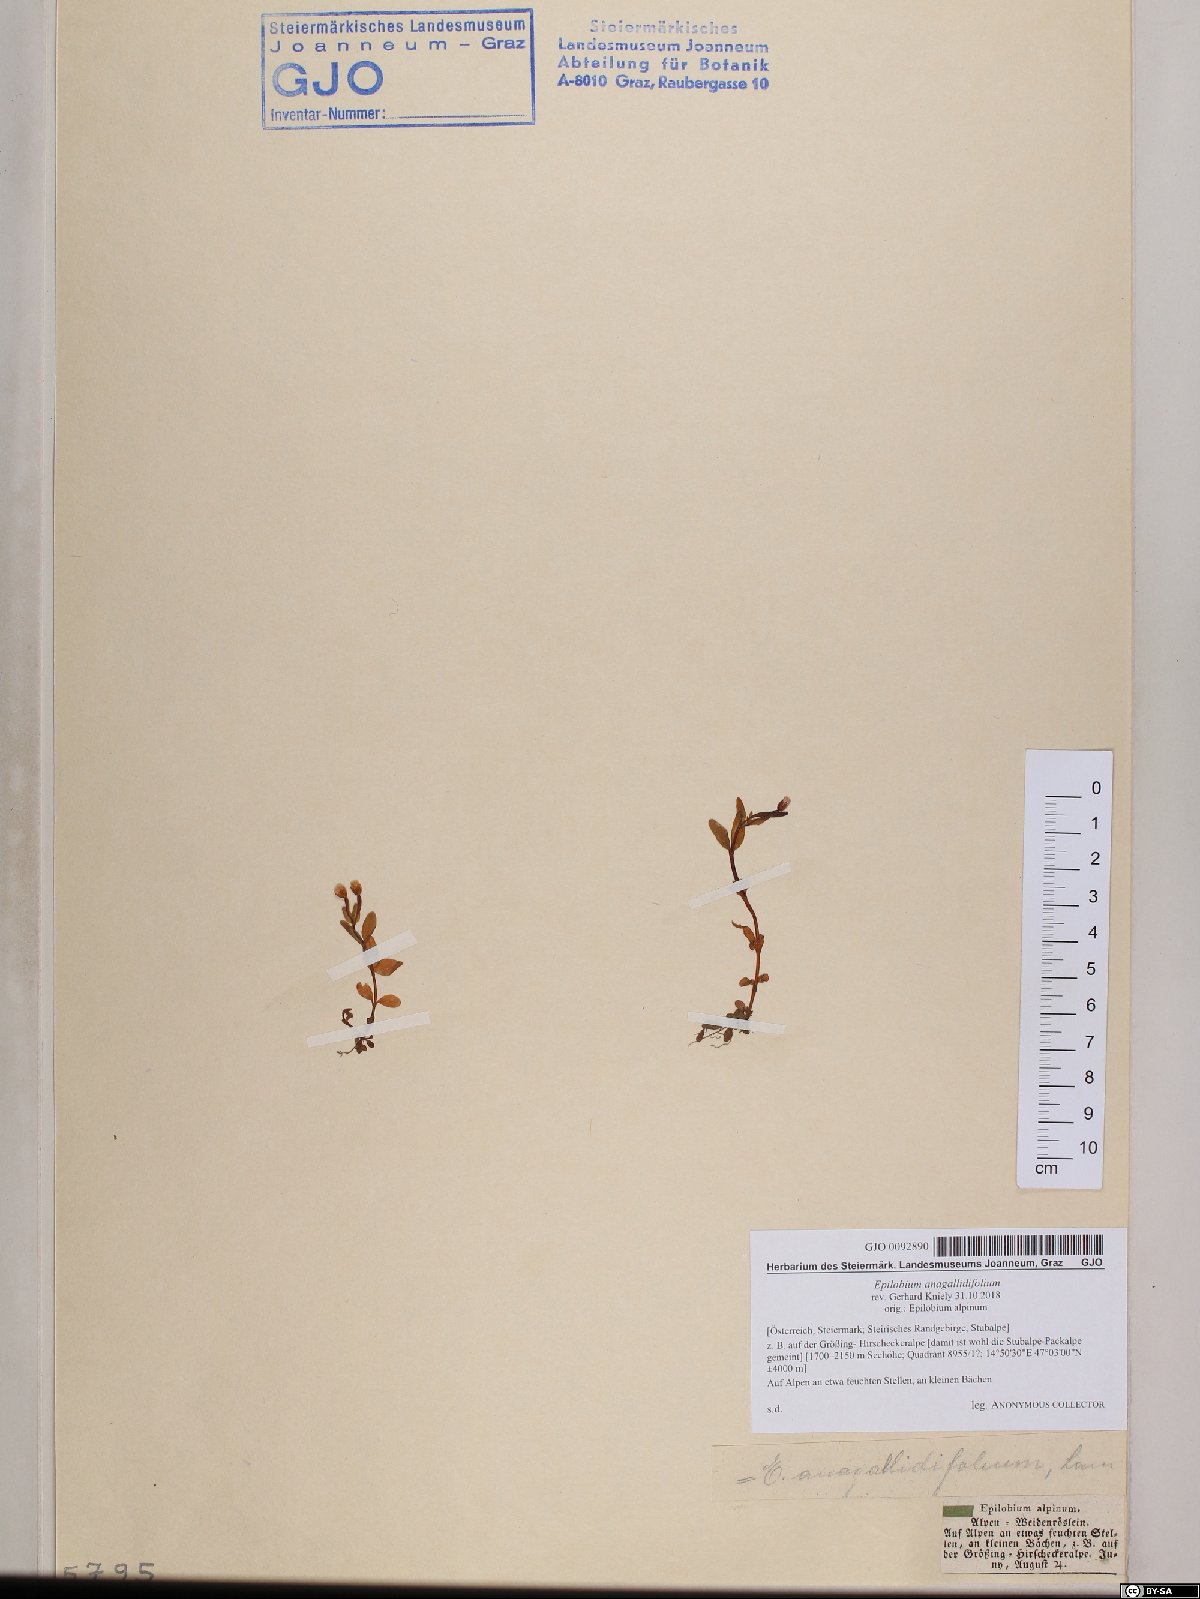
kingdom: Plantae
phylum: Tracheophyta
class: Magnoliopsida
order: Myrtales
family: Onagraceae
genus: Epilobium
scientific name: Epilobium anagallidifolium
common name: Alpine willowherb
